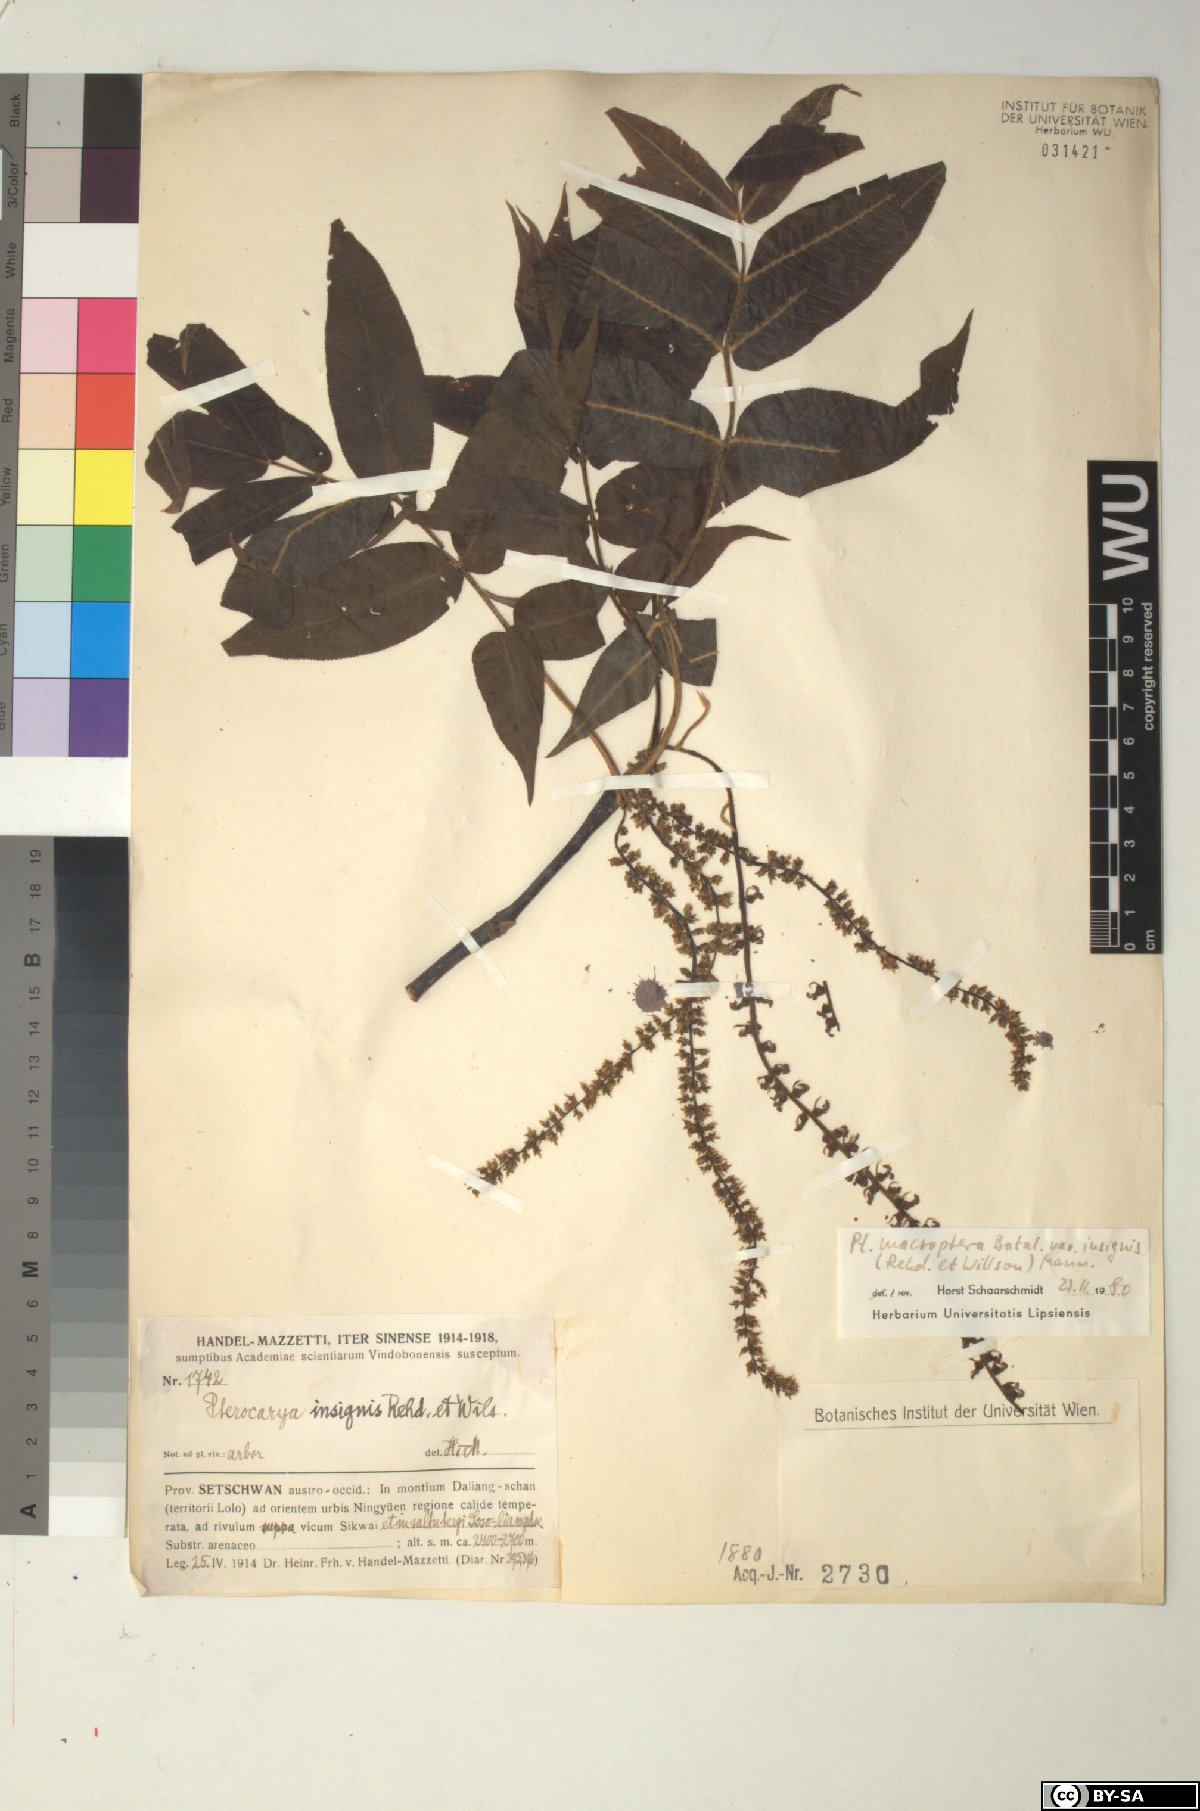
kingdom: Plantae
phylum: Tracheophyta
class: Magnoliopsida
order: Fagales
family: Juglandaceae
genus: Pterocarya
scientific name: Pterocarya macroptera
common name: Large-winged wingnut
